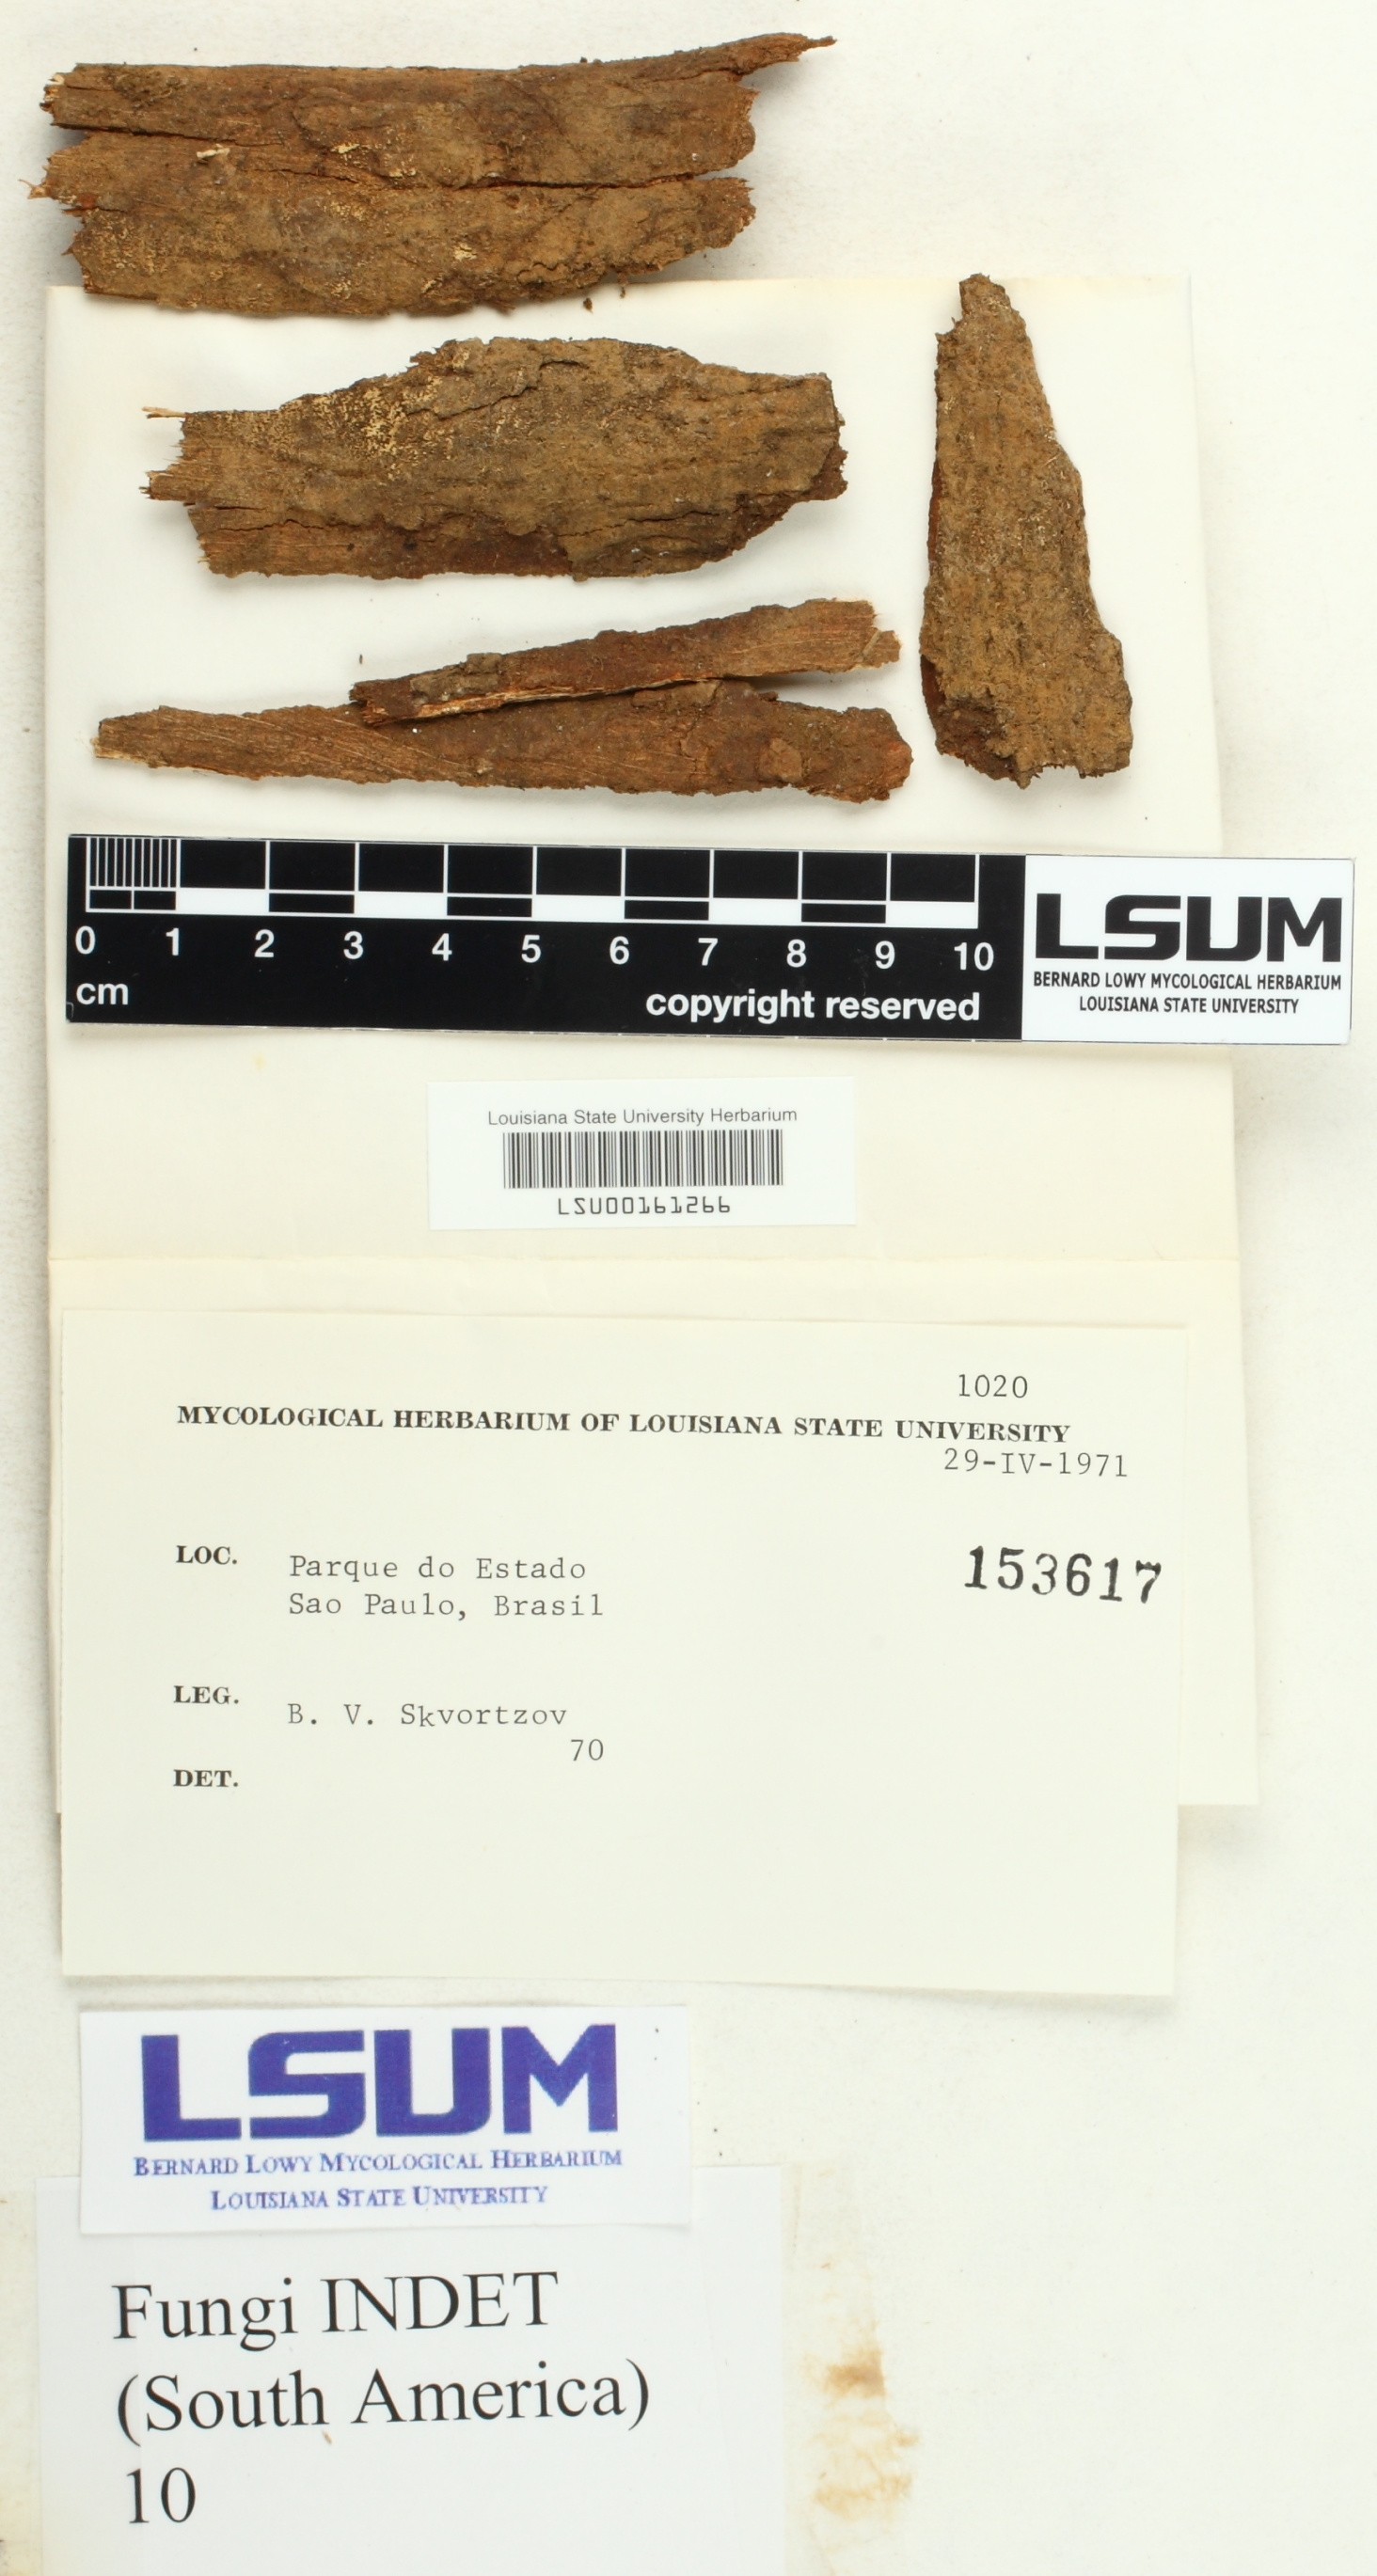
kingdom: Fungi
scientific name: Fungi
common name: Fungi
